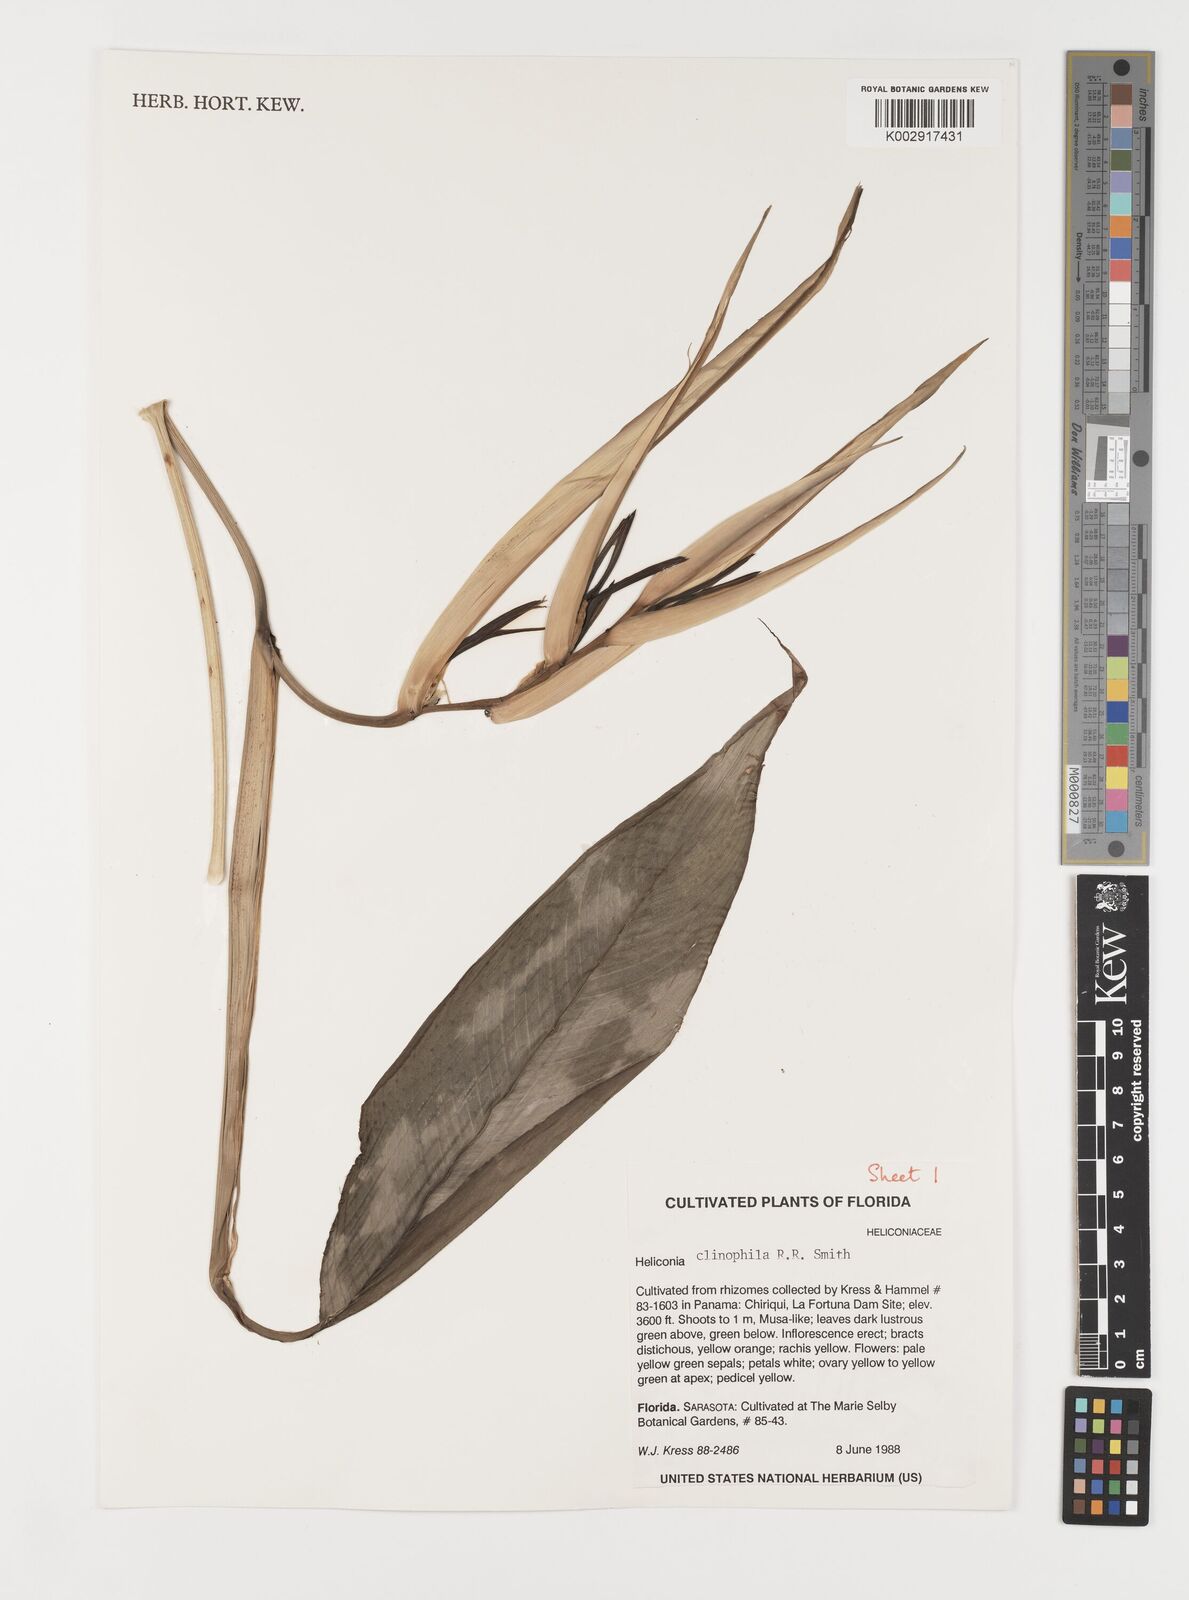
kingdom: Plantae
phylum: Tracheophyta
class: Liliopsida
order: Zingiberales
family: Heliconiaceae
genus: Heliconia
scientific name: Heliconia clinophila
